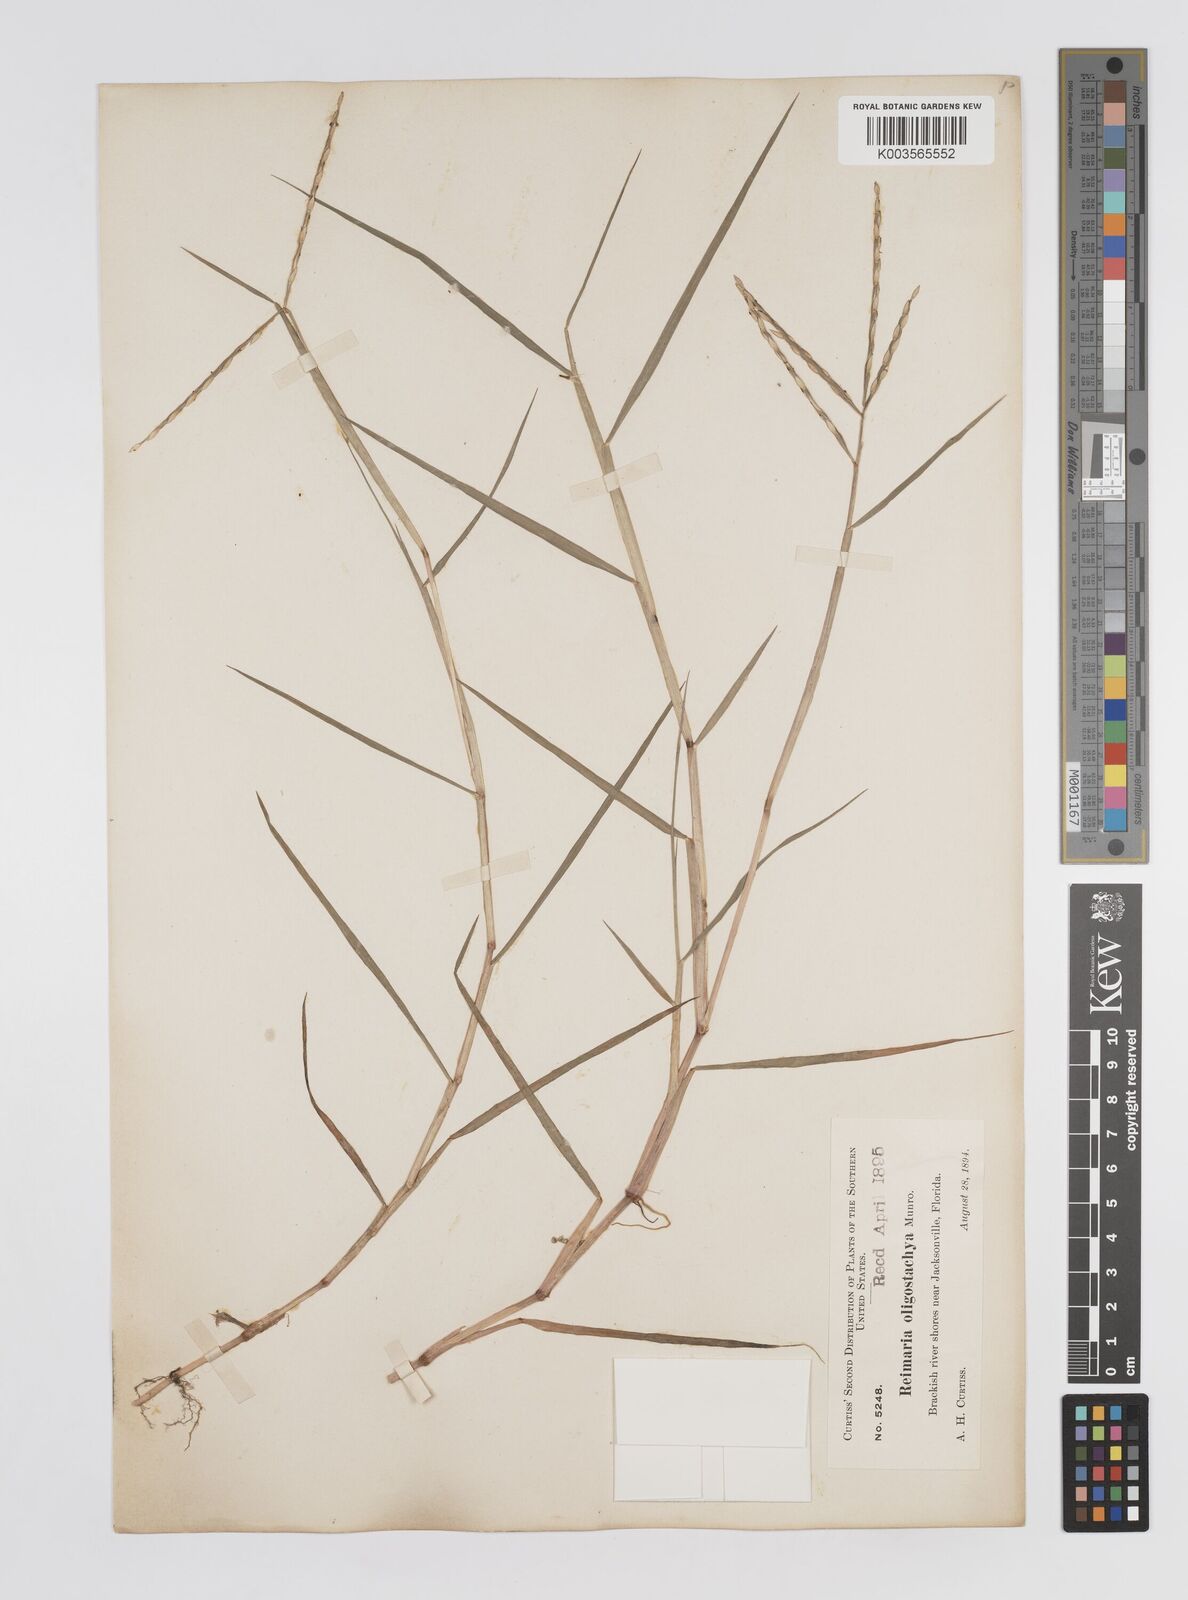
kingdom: Plantae
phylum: Tracheophyta
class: Liliopsida
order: Poales
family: Poaceae
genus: Paspalum
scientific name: Paspalum eglume
